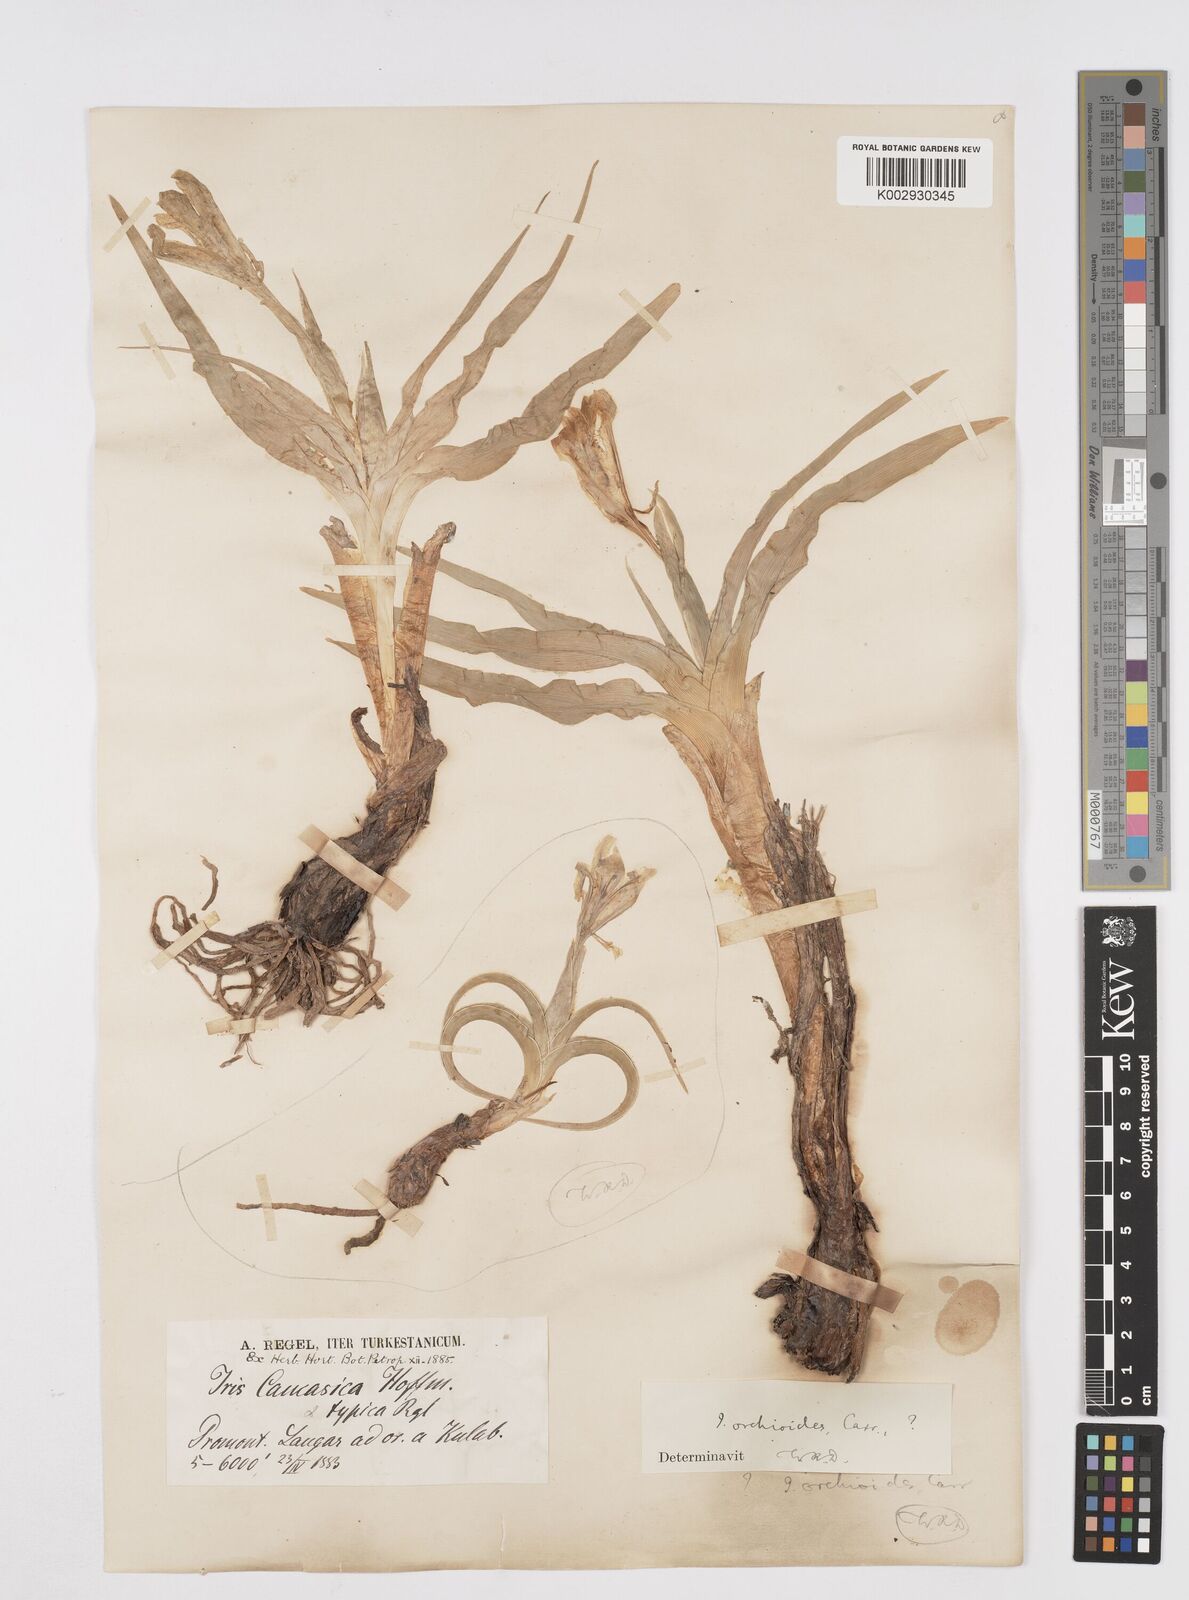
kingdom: Plantae
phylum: Tracheophyta
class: Liliopsida
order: Asparagales
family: Iridaceae
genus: Iris
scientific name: Iris orchioides
